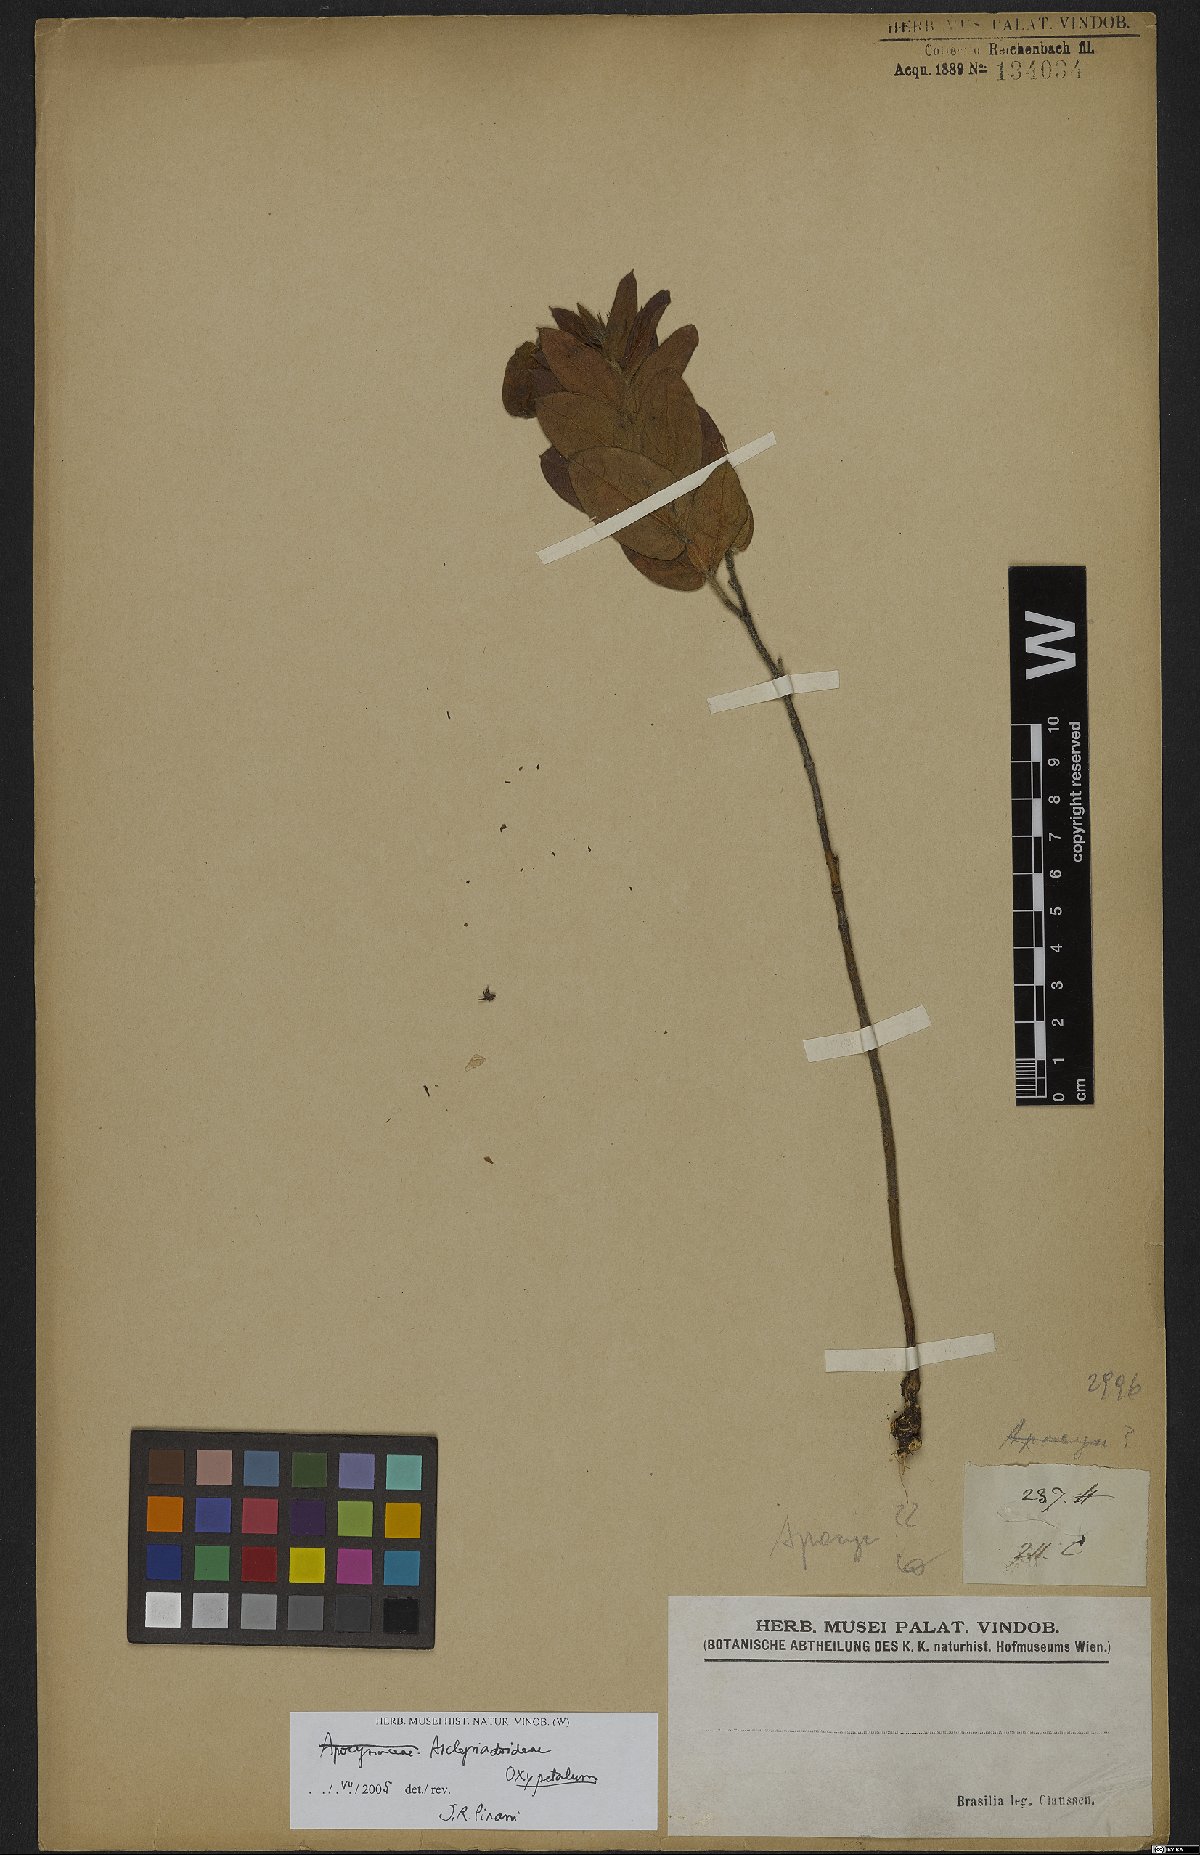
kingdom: Plantae
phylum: Tracheophyta
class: Magnoliopsida
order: Gentianales
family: Apocynaceae
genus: Oxypetalum
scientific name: Oxypetalum
